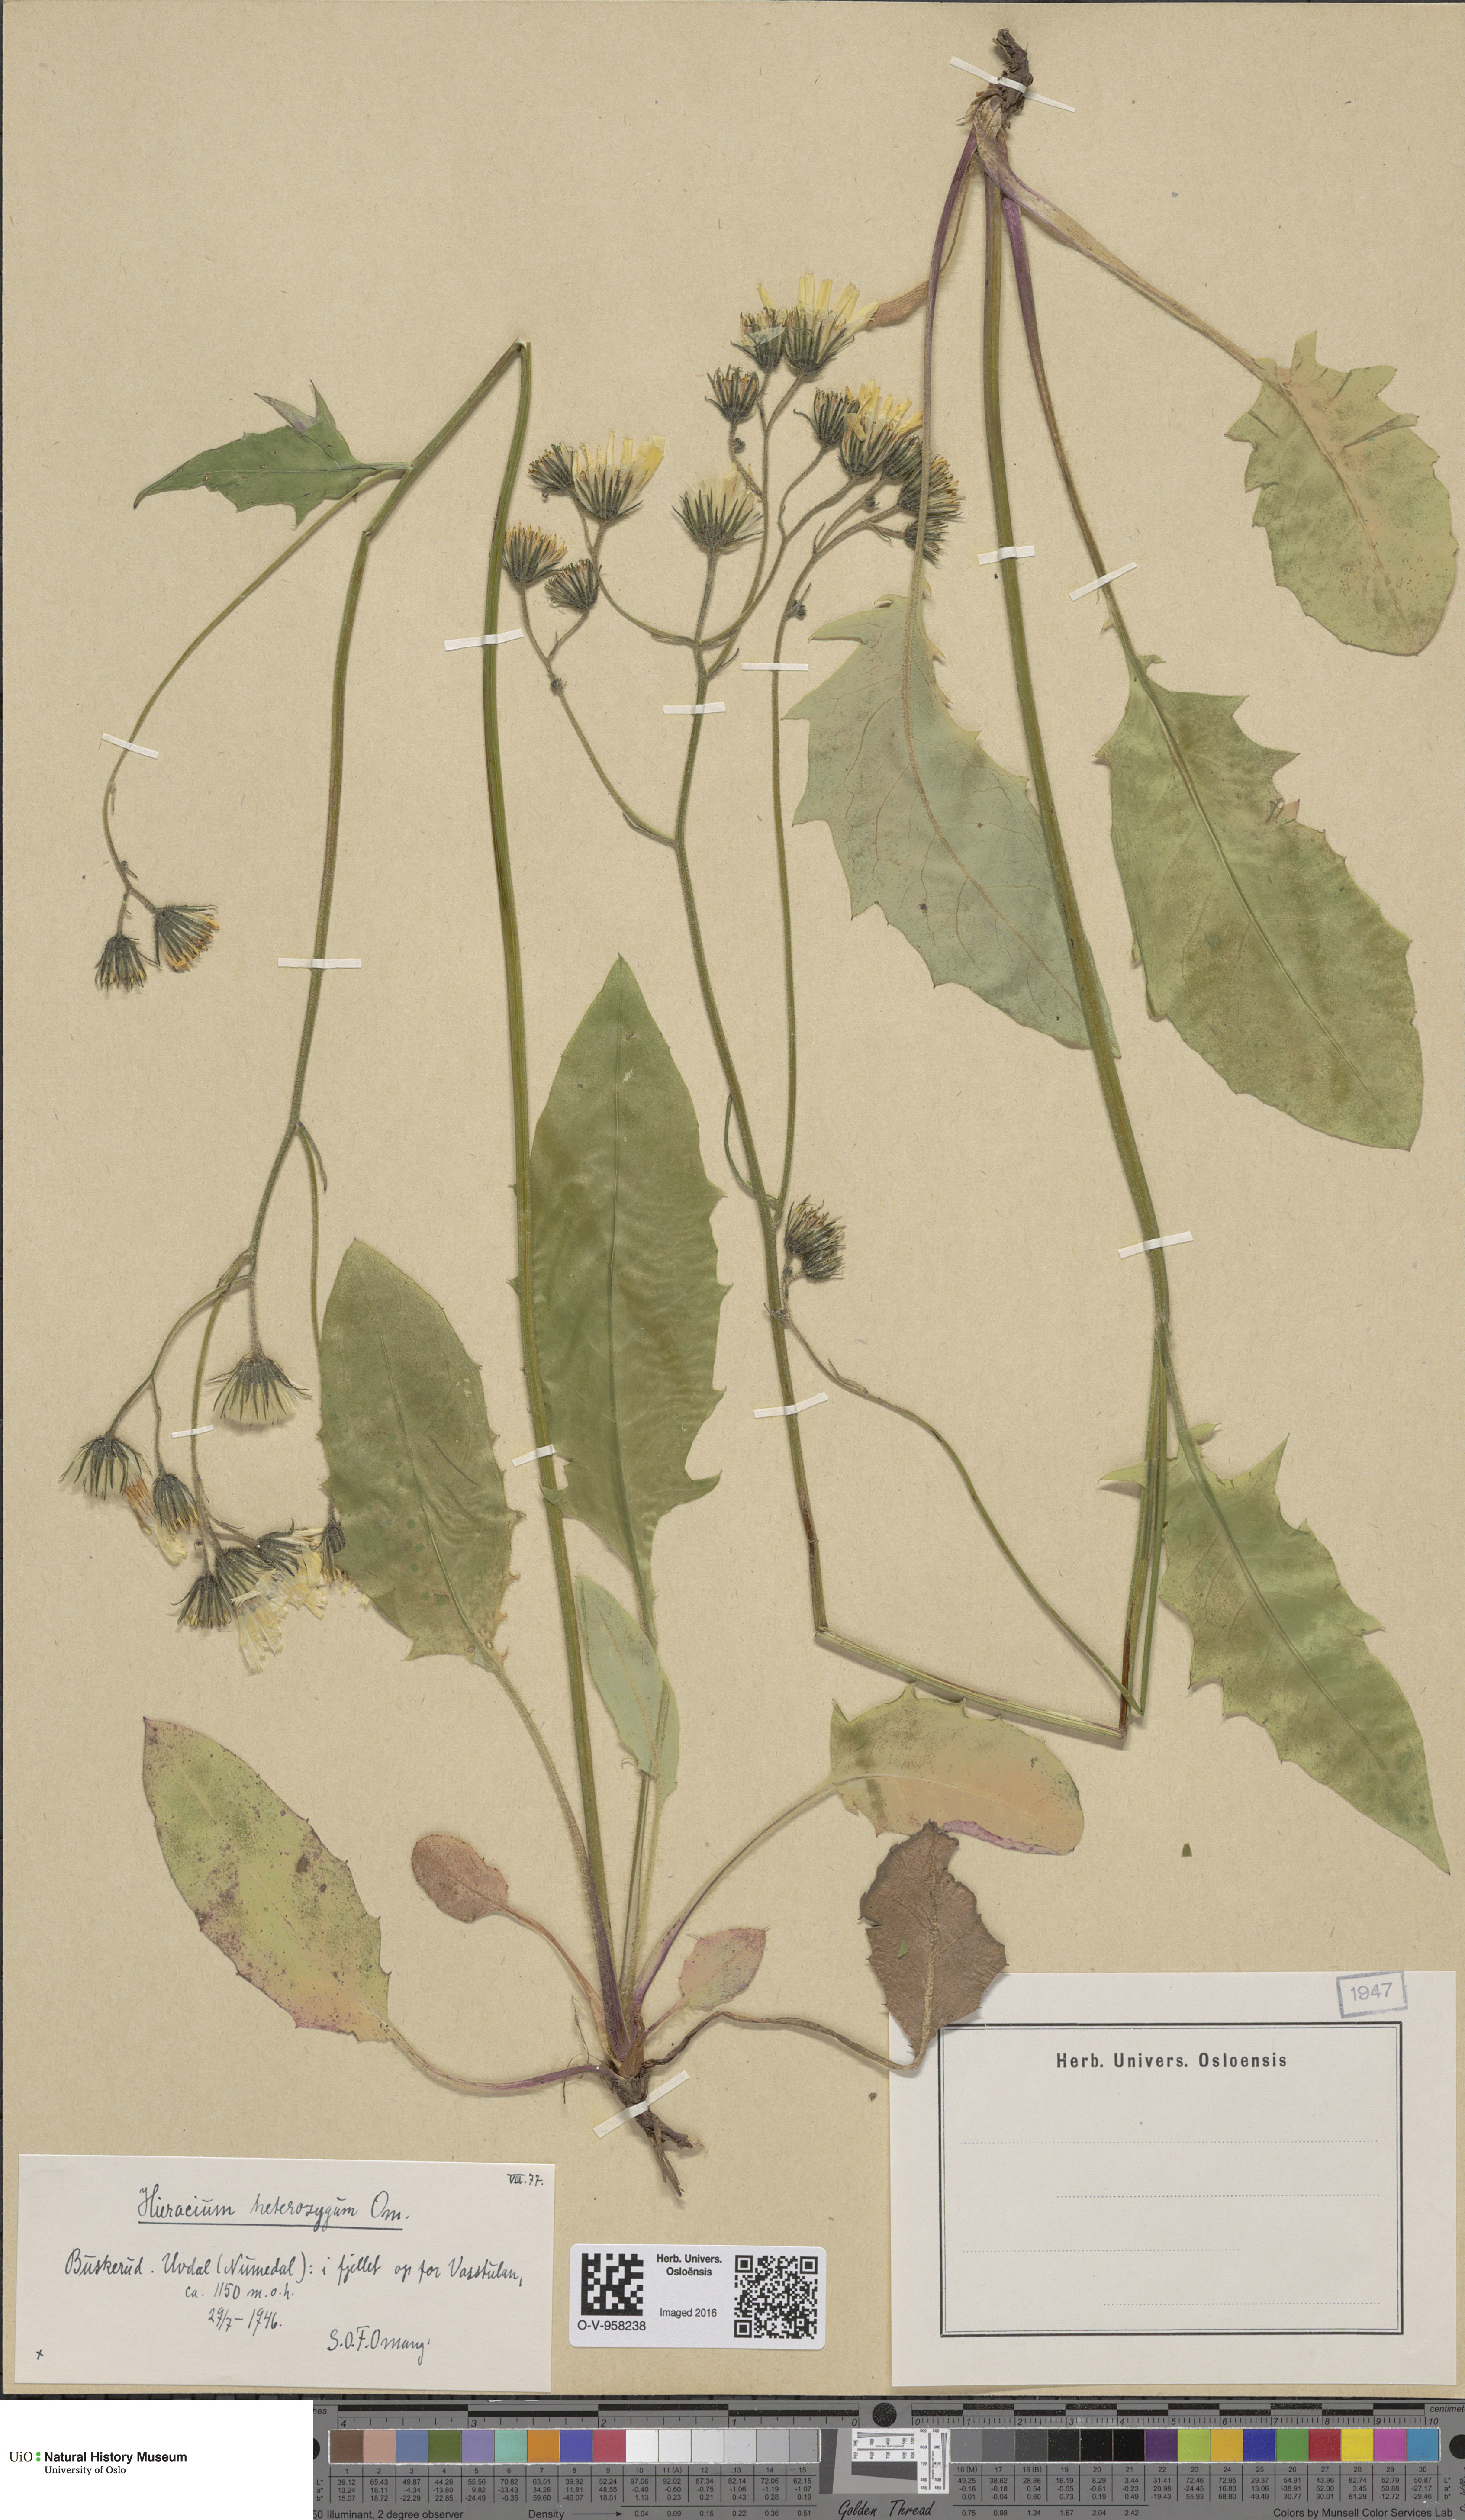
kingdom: Plantae
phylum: Tracheophyta
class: Magnoliopsida
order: Asterales
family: Asteraceae
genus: Hieracium
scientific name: Hieracium
